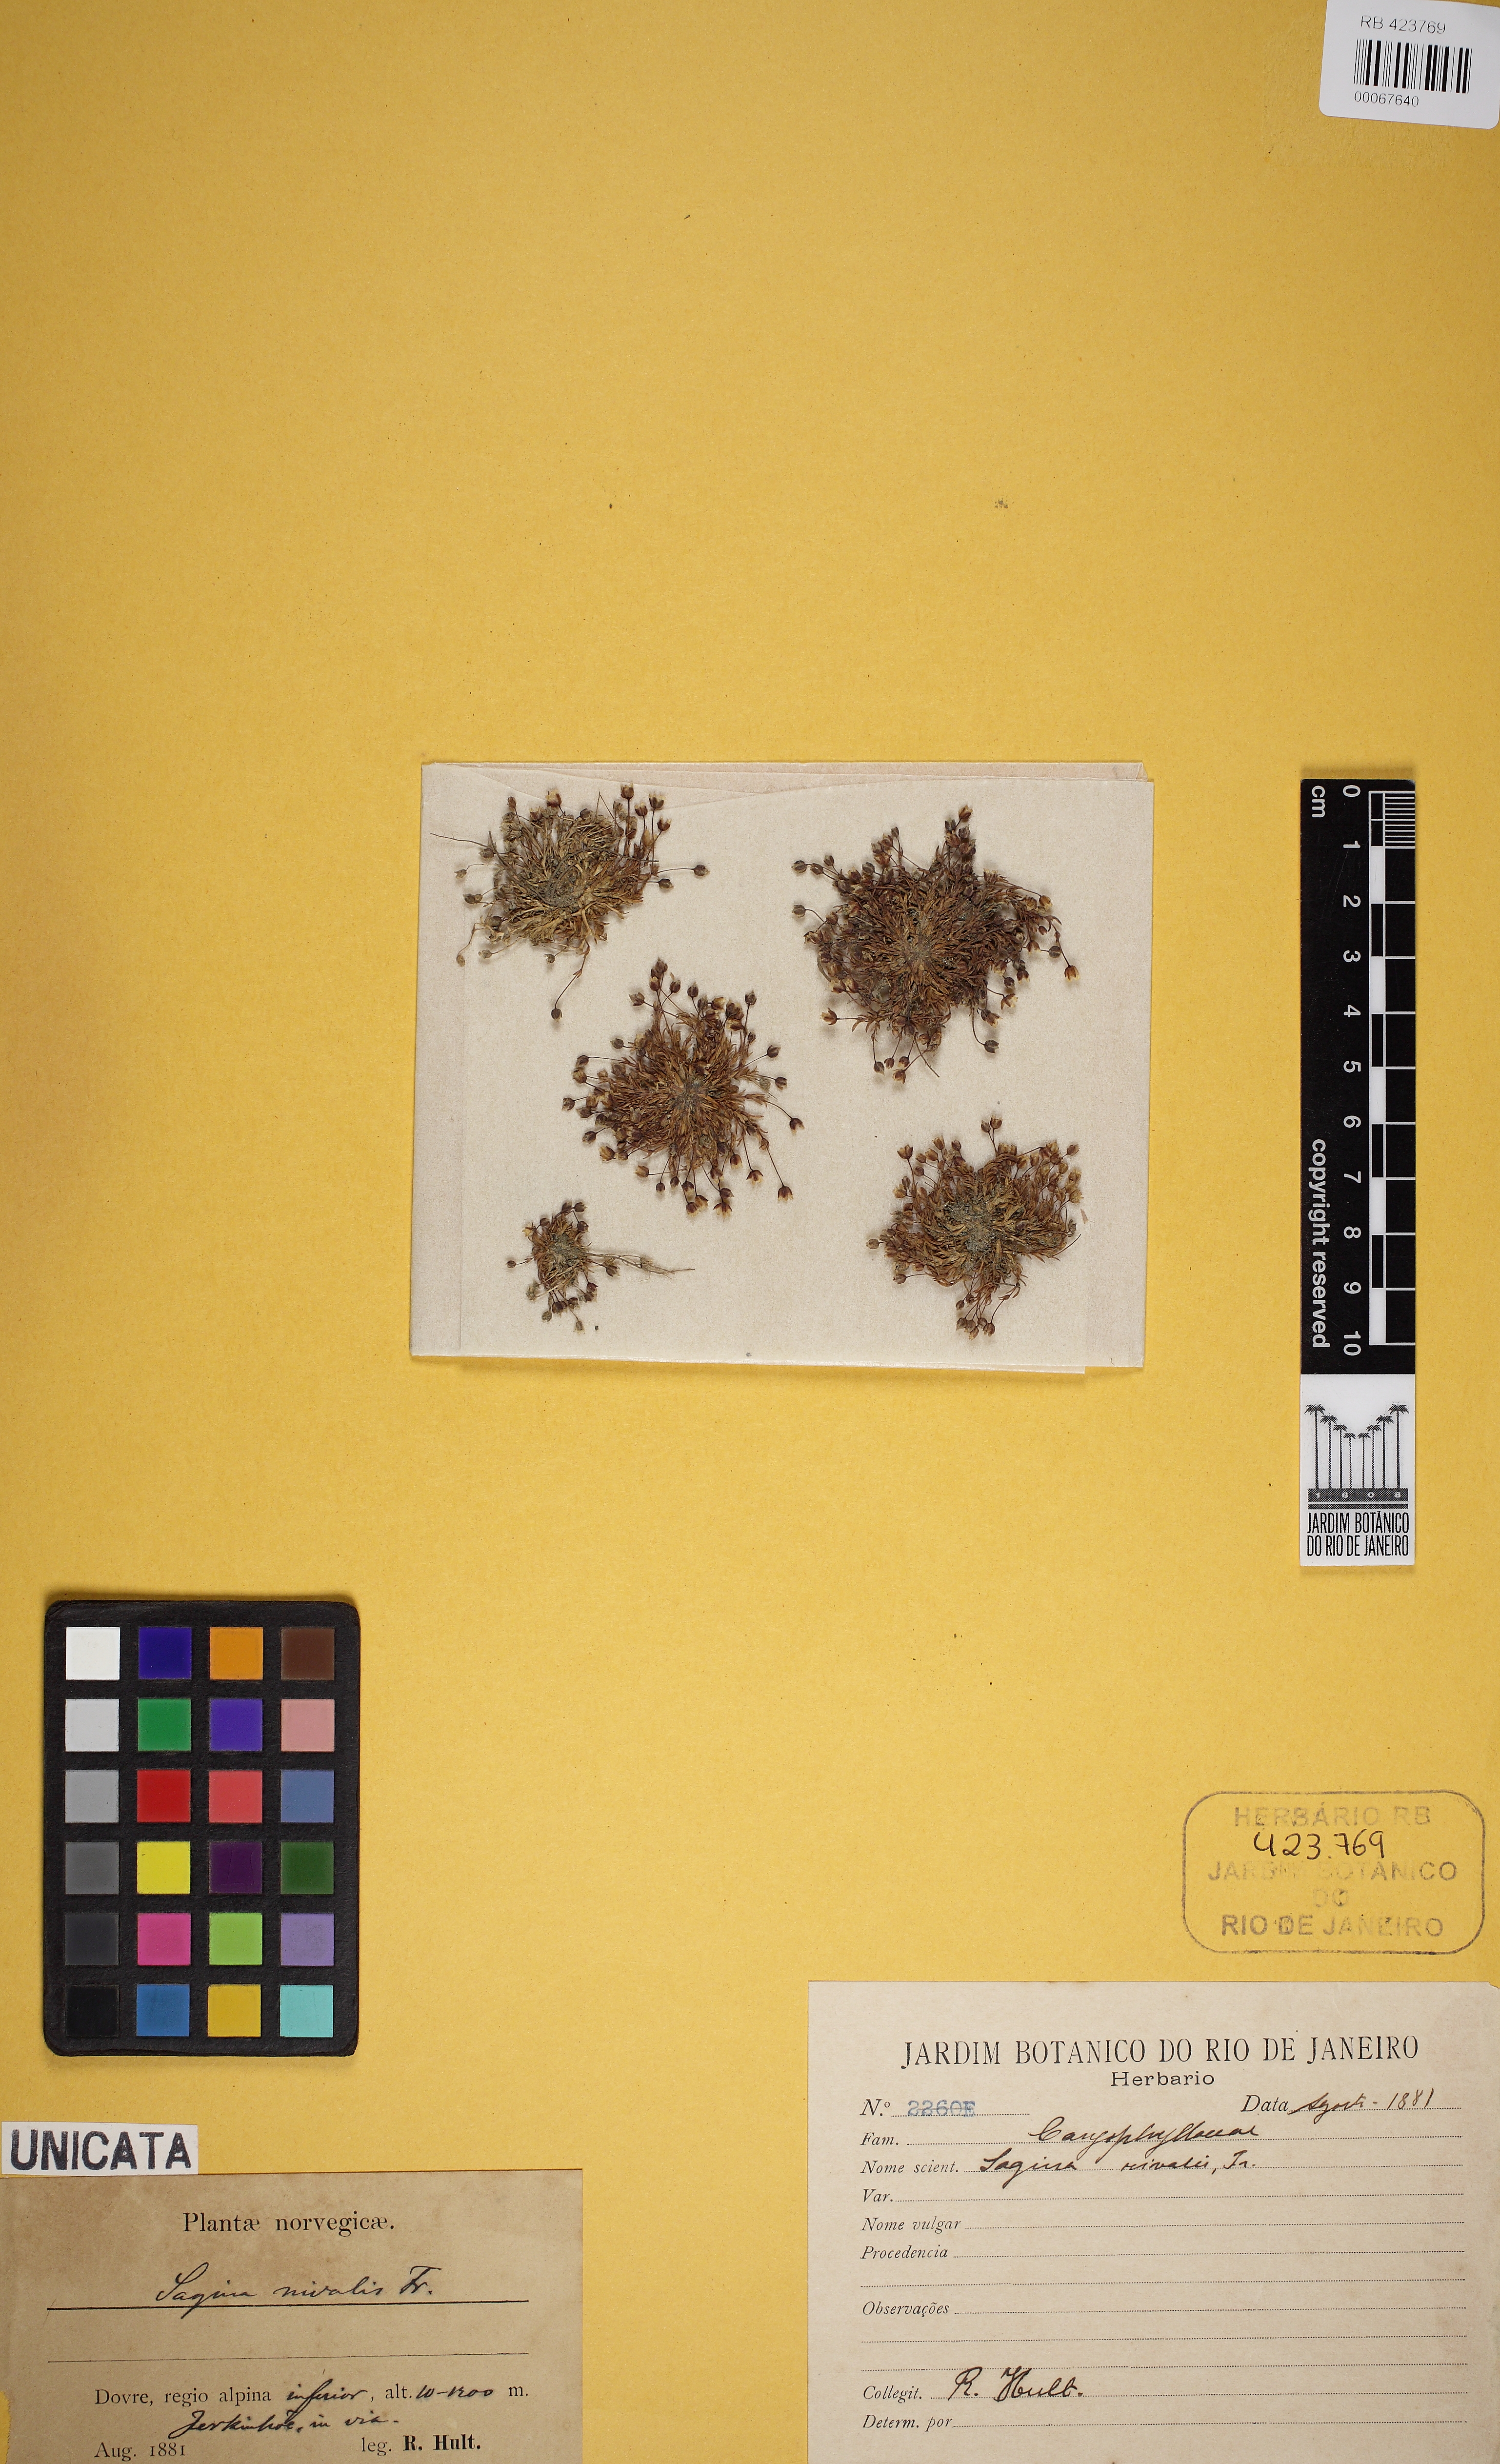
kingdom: Plantae
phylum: Tracheophyta
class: Magnoliopsida
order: Caryophyllales
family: Caryophyllaceae
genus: Sagina
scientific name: Sagina
